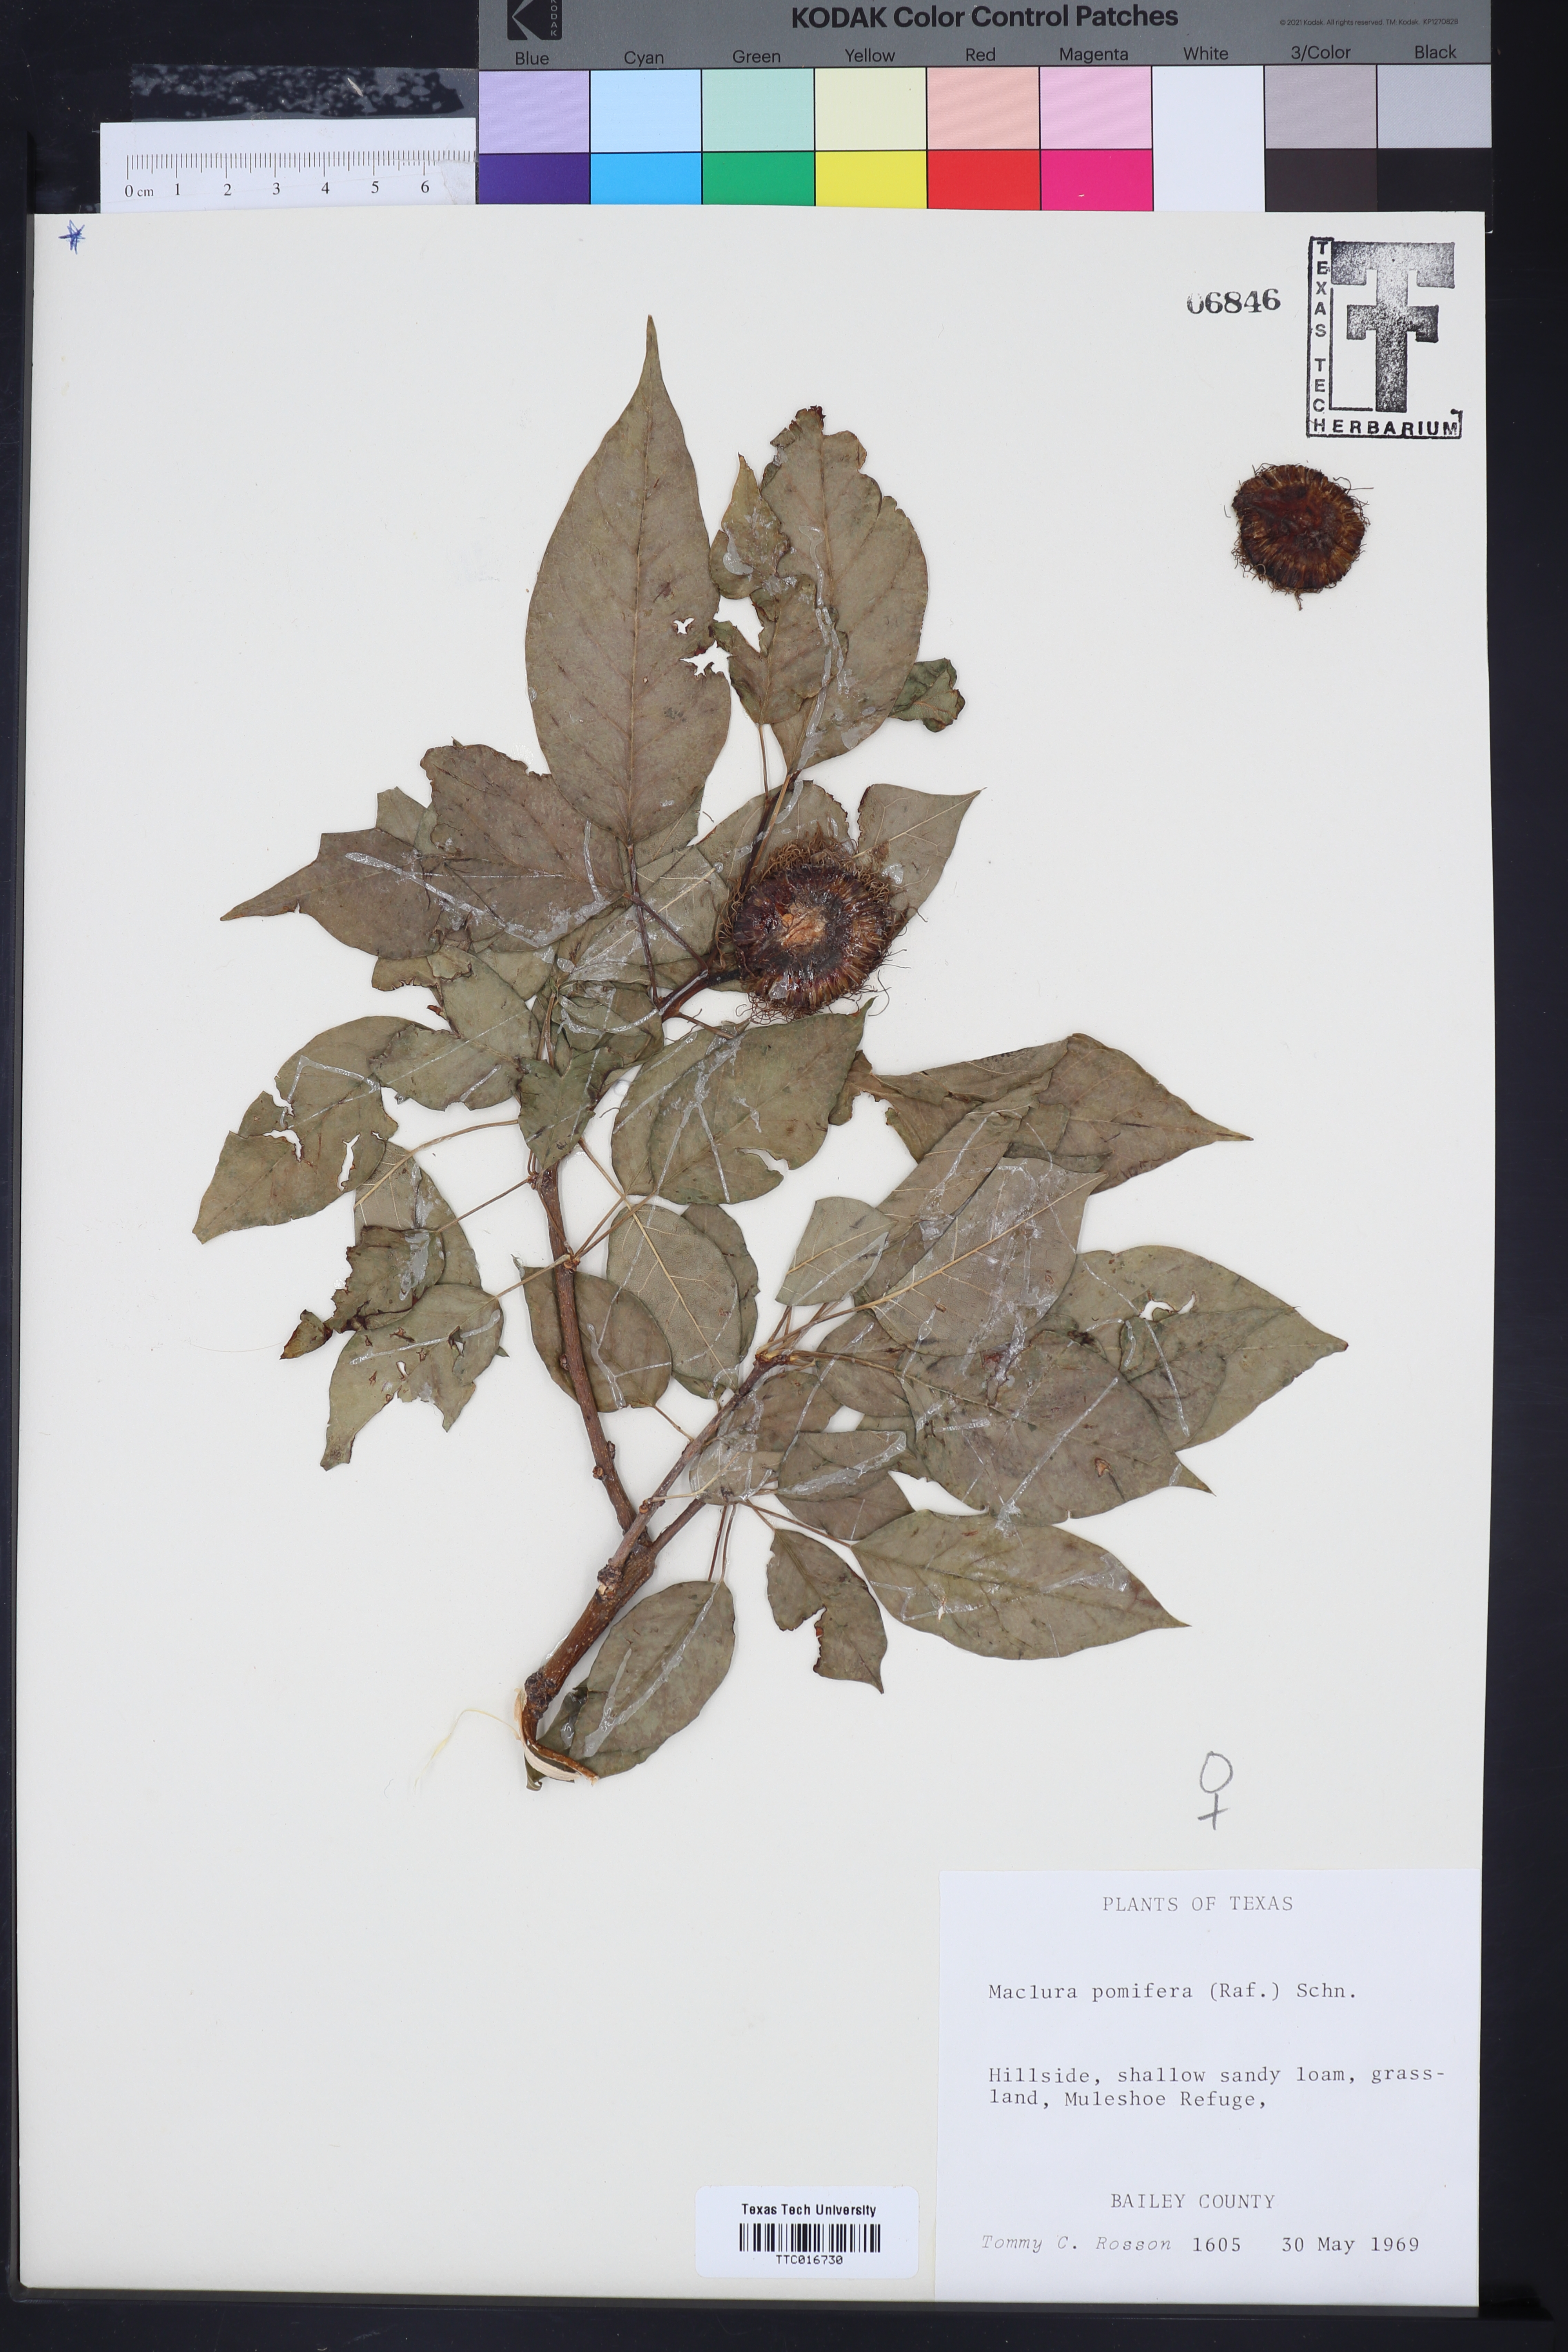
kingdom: Plantae
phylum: Tracheophyta
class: Magnoliopsida
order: Rosales
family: Moraceae
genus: Maclura
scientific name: Maclura pomifera
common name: Osage-orange
